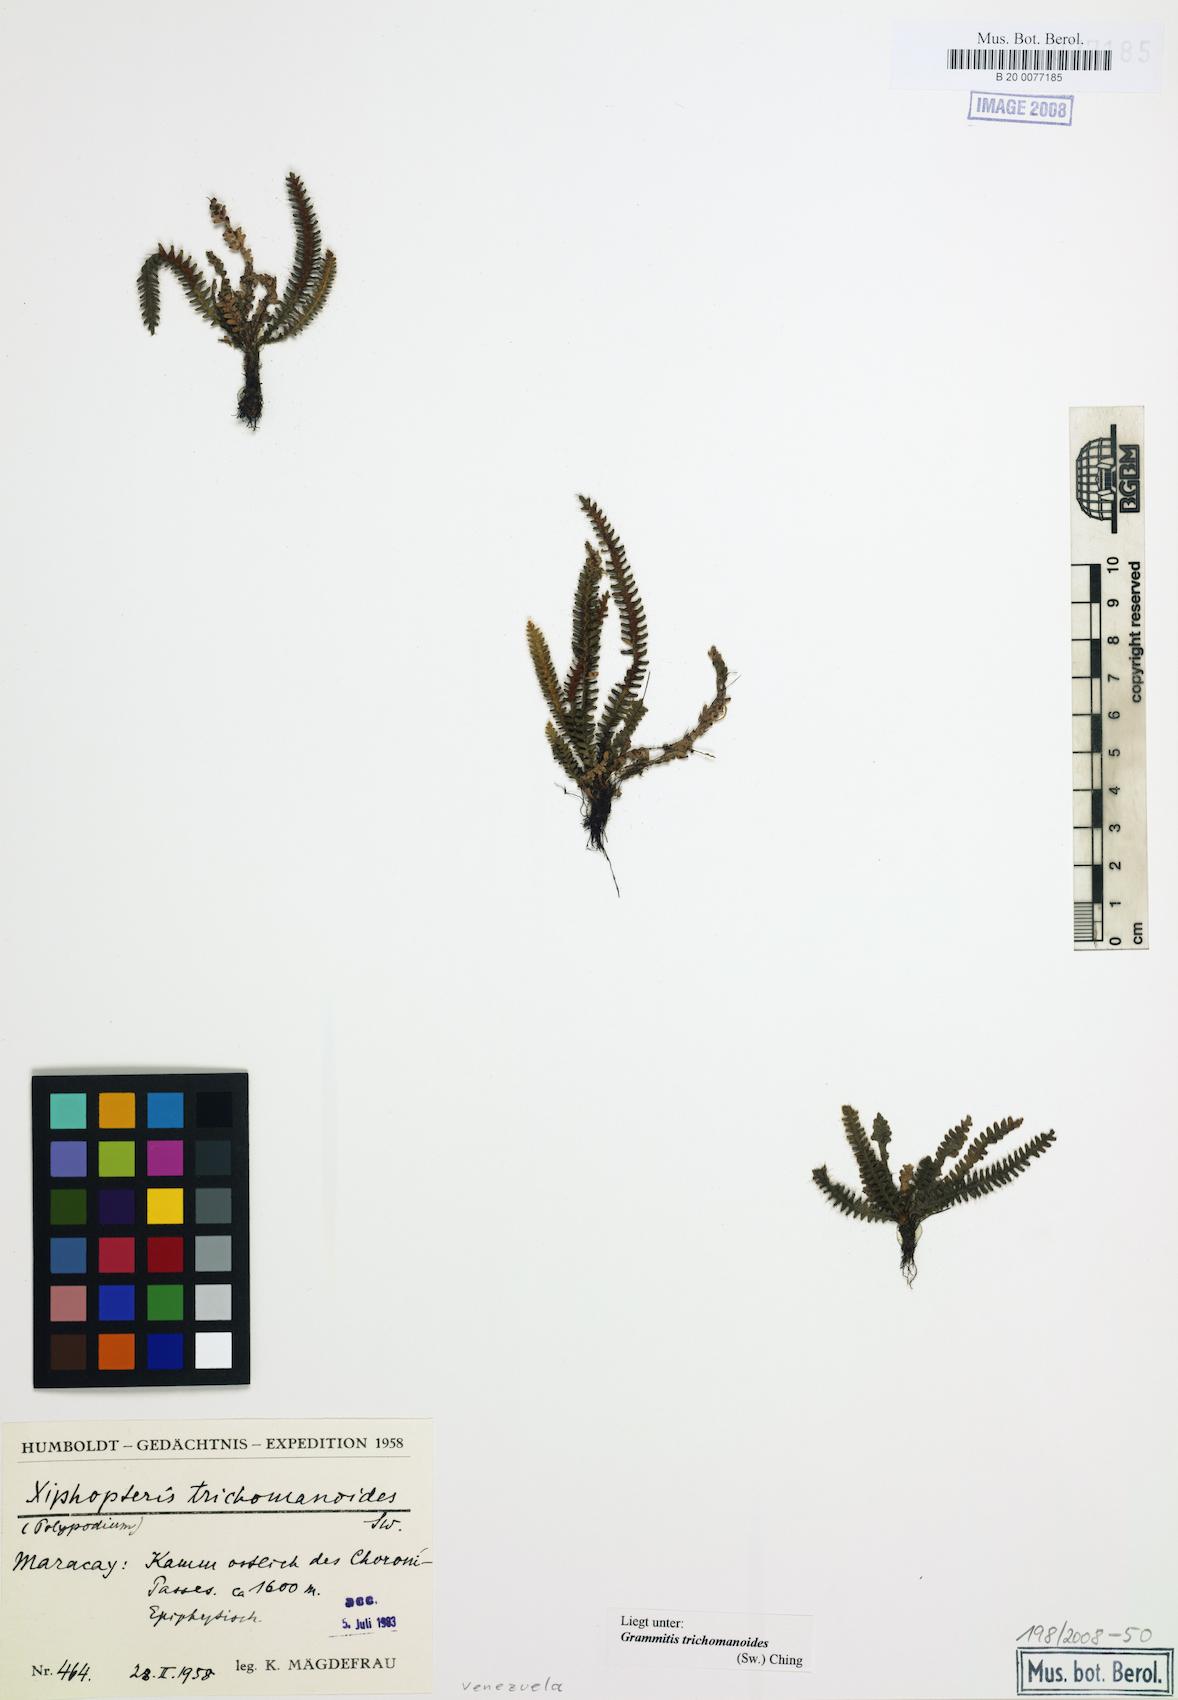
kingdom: Plantae
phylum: Tracheophyta
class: Polypodiopsida
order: Polypodiales
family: Polypodiaceae
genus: Moranopteris
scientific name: Moranopteris simplex
